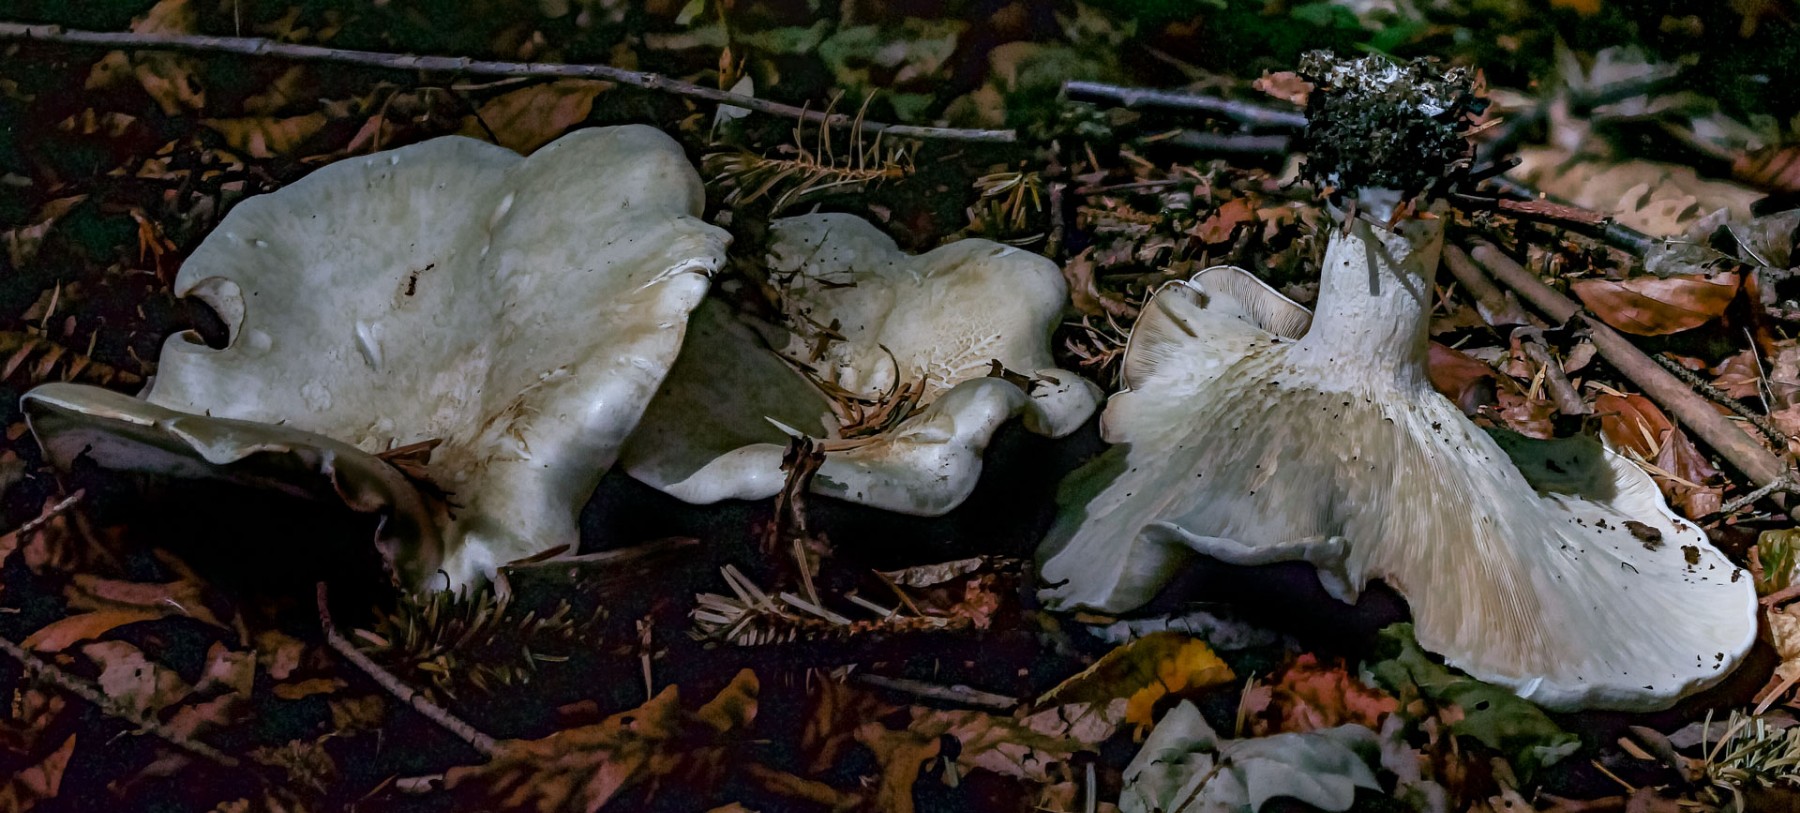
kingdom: Fungi
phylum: Basidiomycota
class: Agaricomycetes
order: Agaricales
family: Tricholomataceae
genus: Aspropaxillus
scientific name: Aspropaxillus giganteus
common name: kæmpe-tragtridderhat
